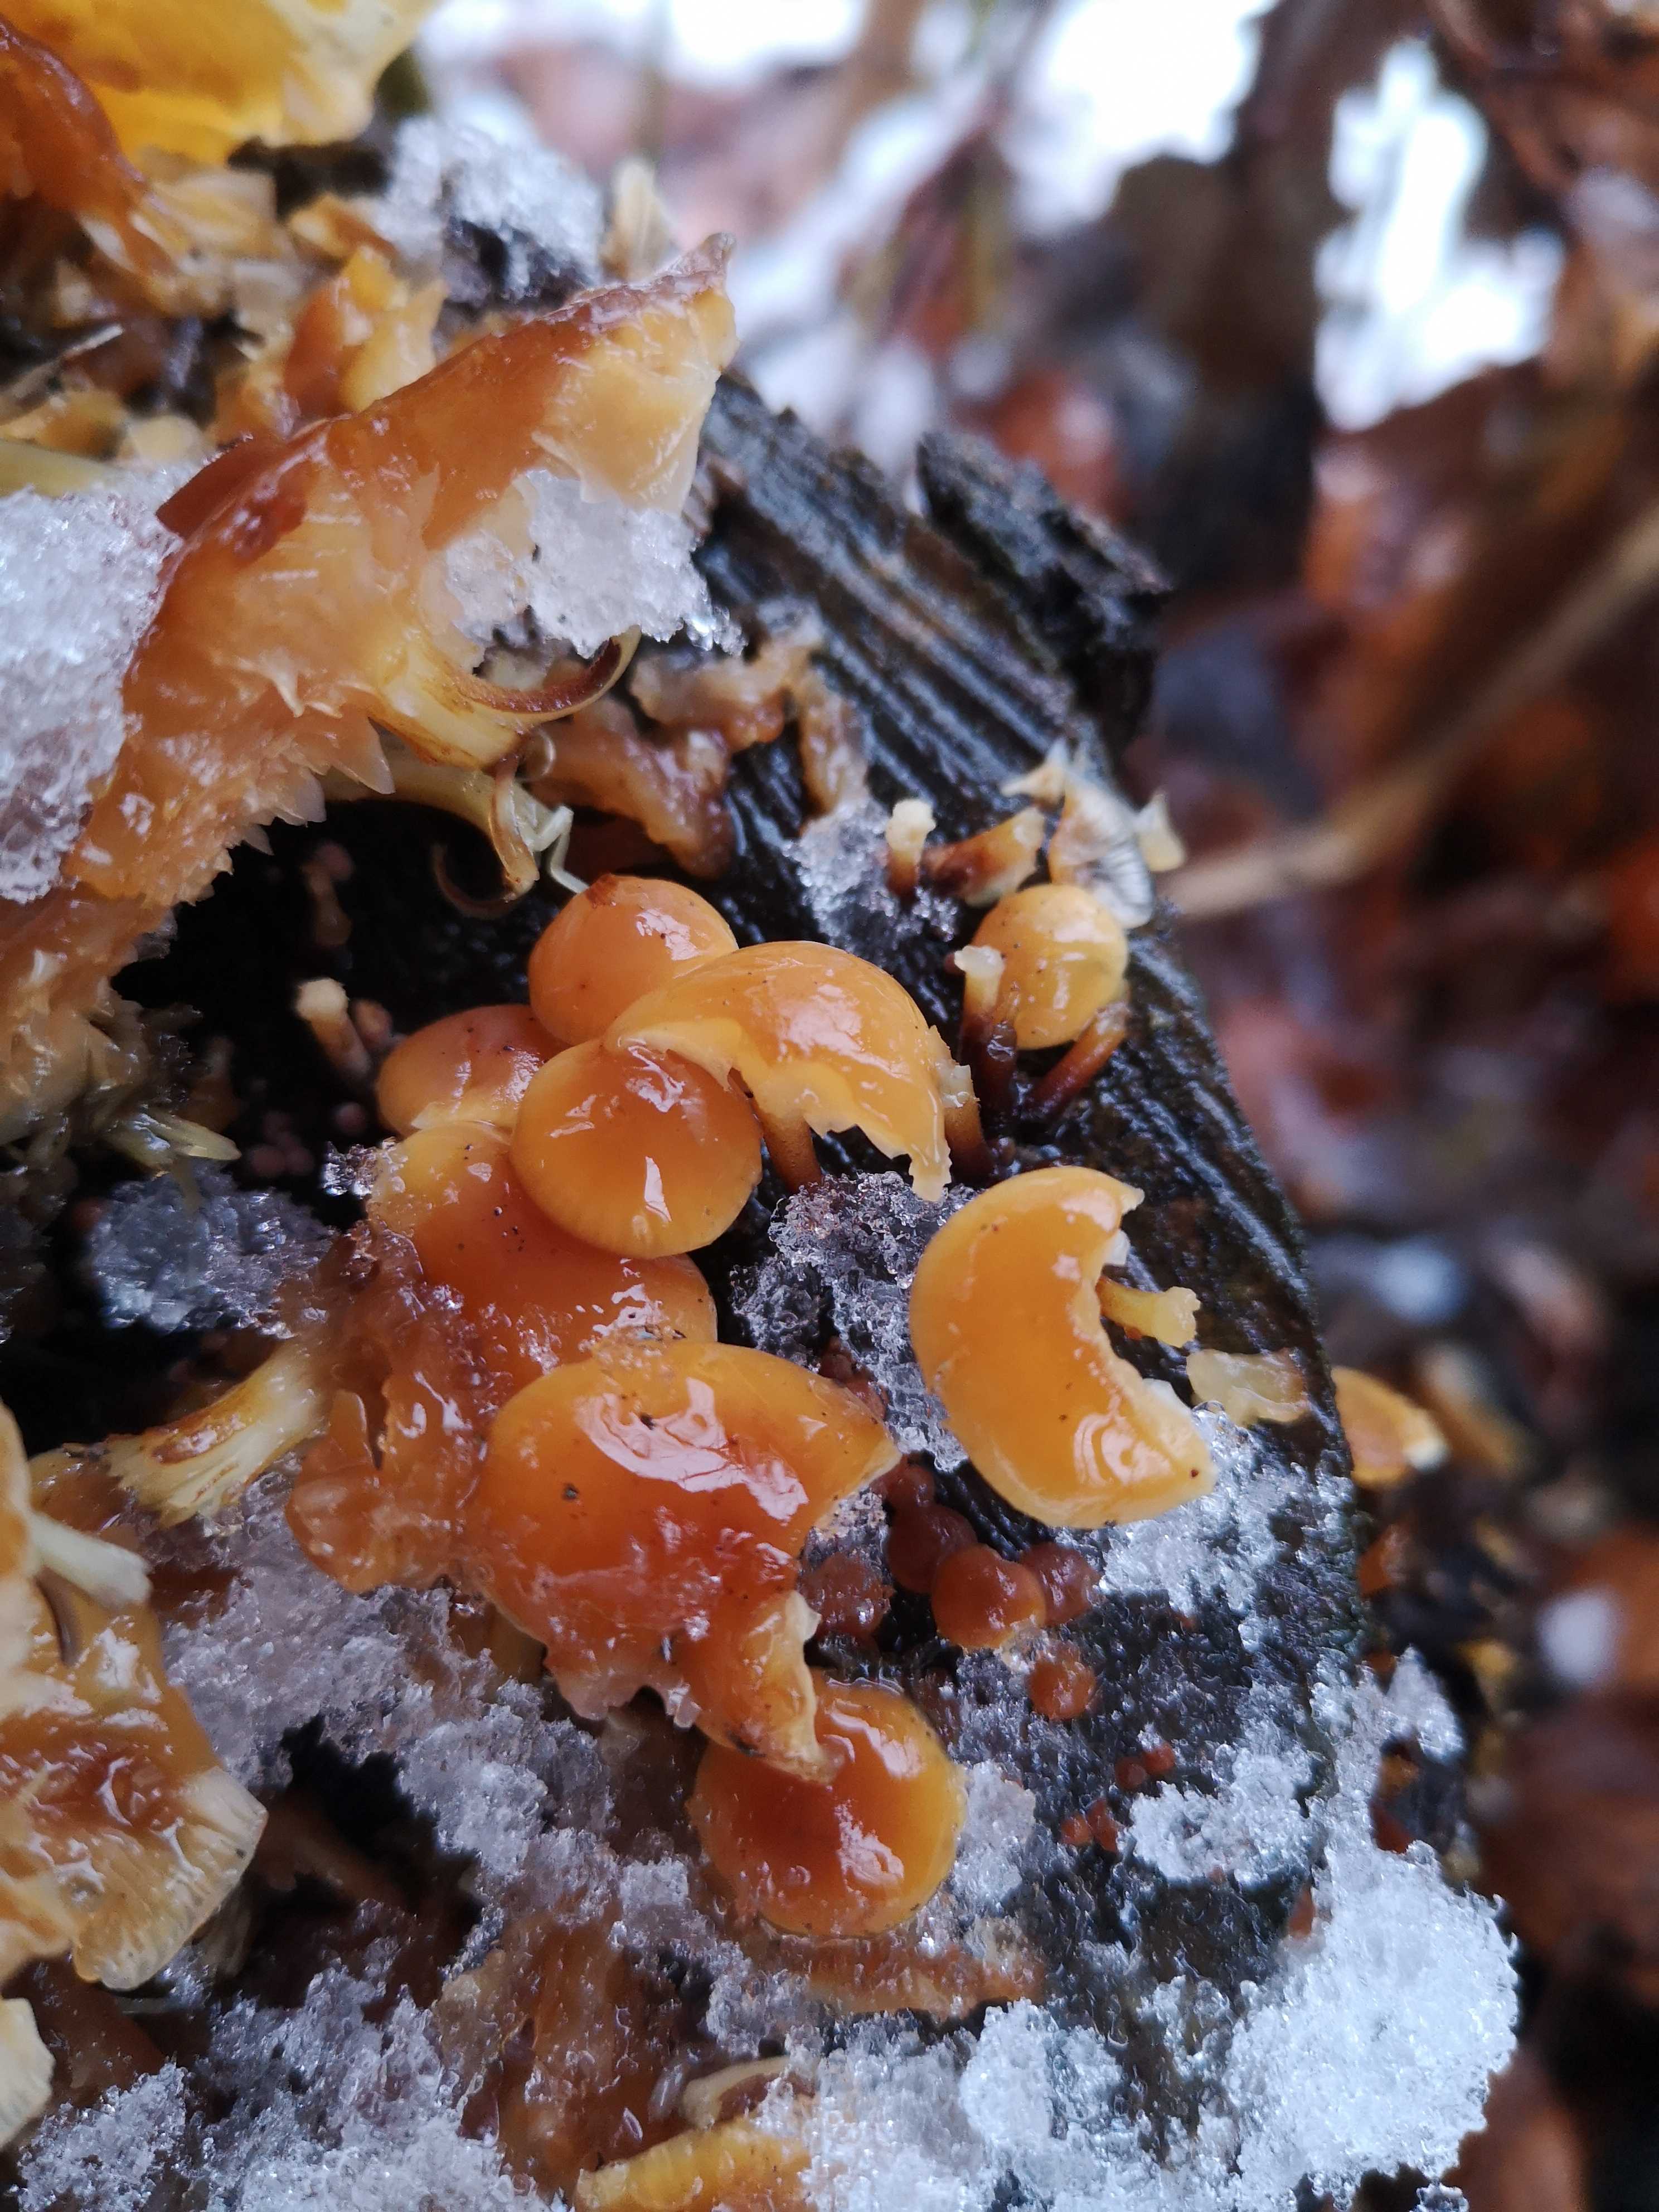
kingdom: Fungi
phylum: Basidiomycota
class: Agaricomycetes
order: Agaricales
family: Physalacriaceae
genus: Flammulina
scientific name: Flammulina velutipes
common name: gul fløjlsfod
